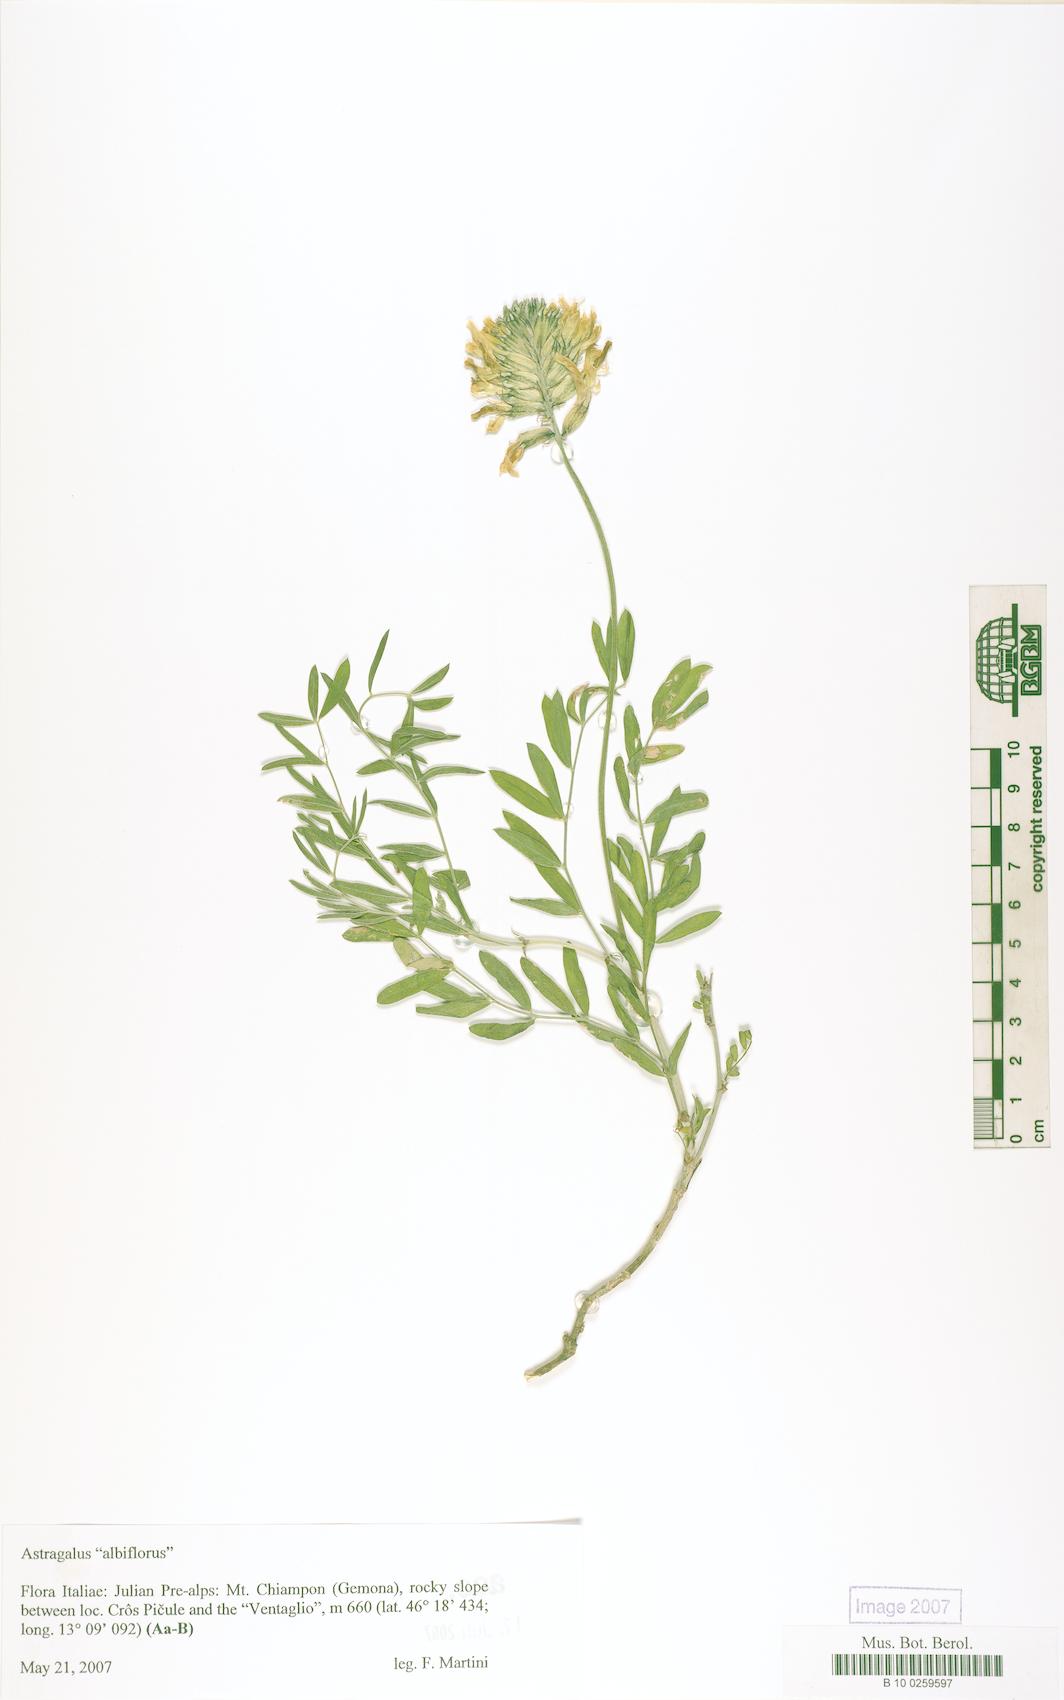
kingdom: Plantae
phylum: Tracheophyta
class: Magnoliopsida
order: Fabales
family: Fabaceae
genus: Oxytropis
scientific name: Oxytropis
